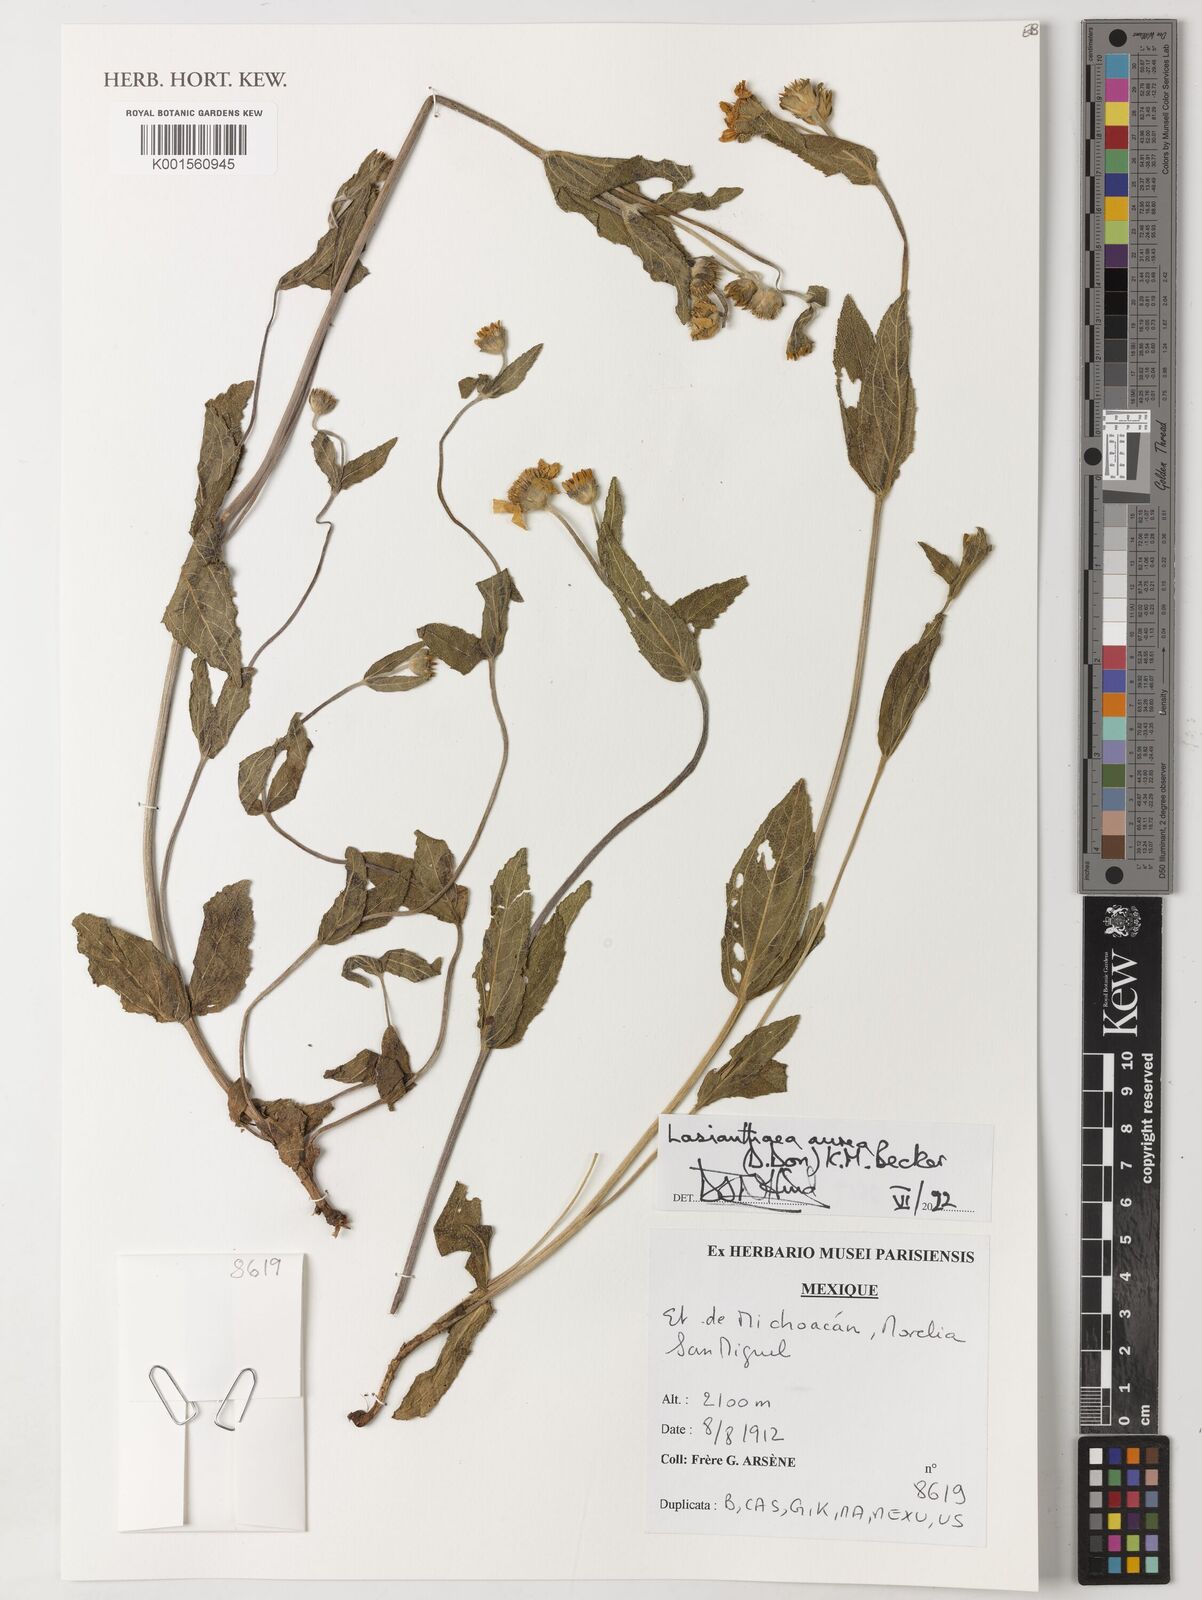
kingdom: Plantae
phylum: Tracheophyta
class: Magnoliopsida
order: Asterales
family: Asteraceae
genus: Lasianthaea
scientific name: Lasianthaea aurea
